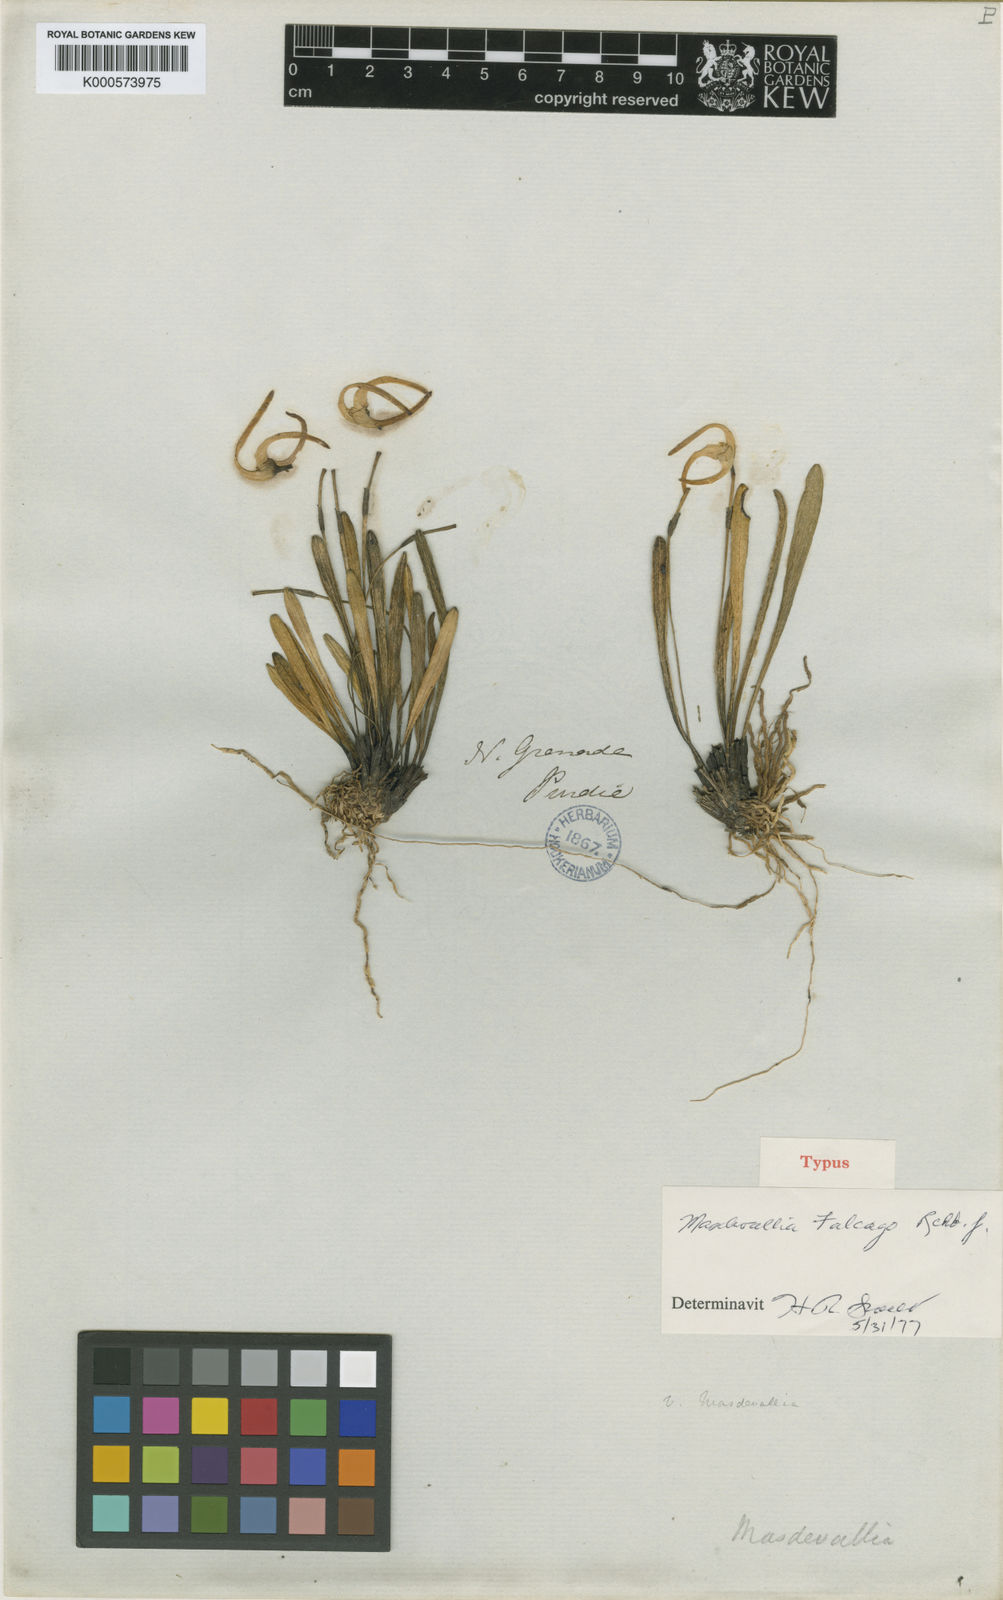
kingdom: Plantae
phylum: Tracheophyta
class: Liliopsida
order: Asparagales
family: Orchidaceae
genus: Masdevallia
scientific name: Masdevallia falcago
